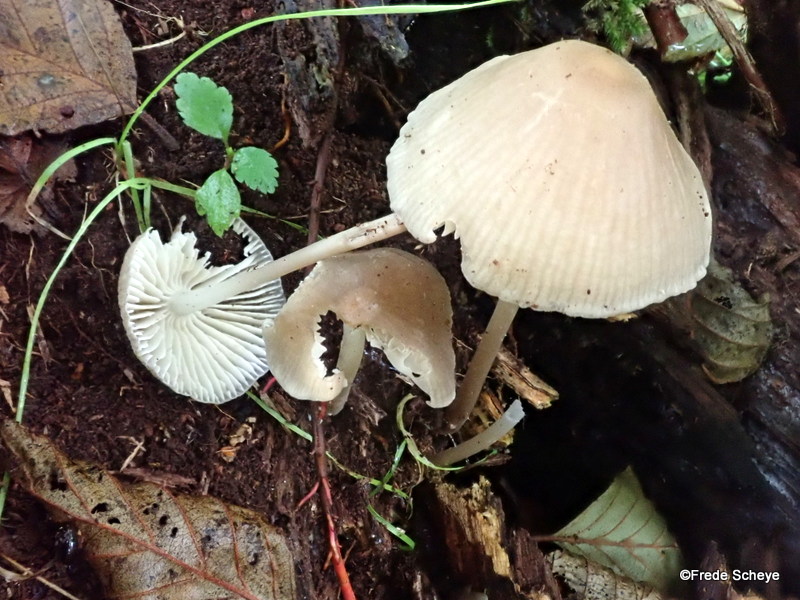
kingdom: Fungi
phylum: Basidiomycota
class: Agaricomycetes
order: Agaricales
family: Mycenaceae
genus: Mycena
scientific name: Mycena galericulata
